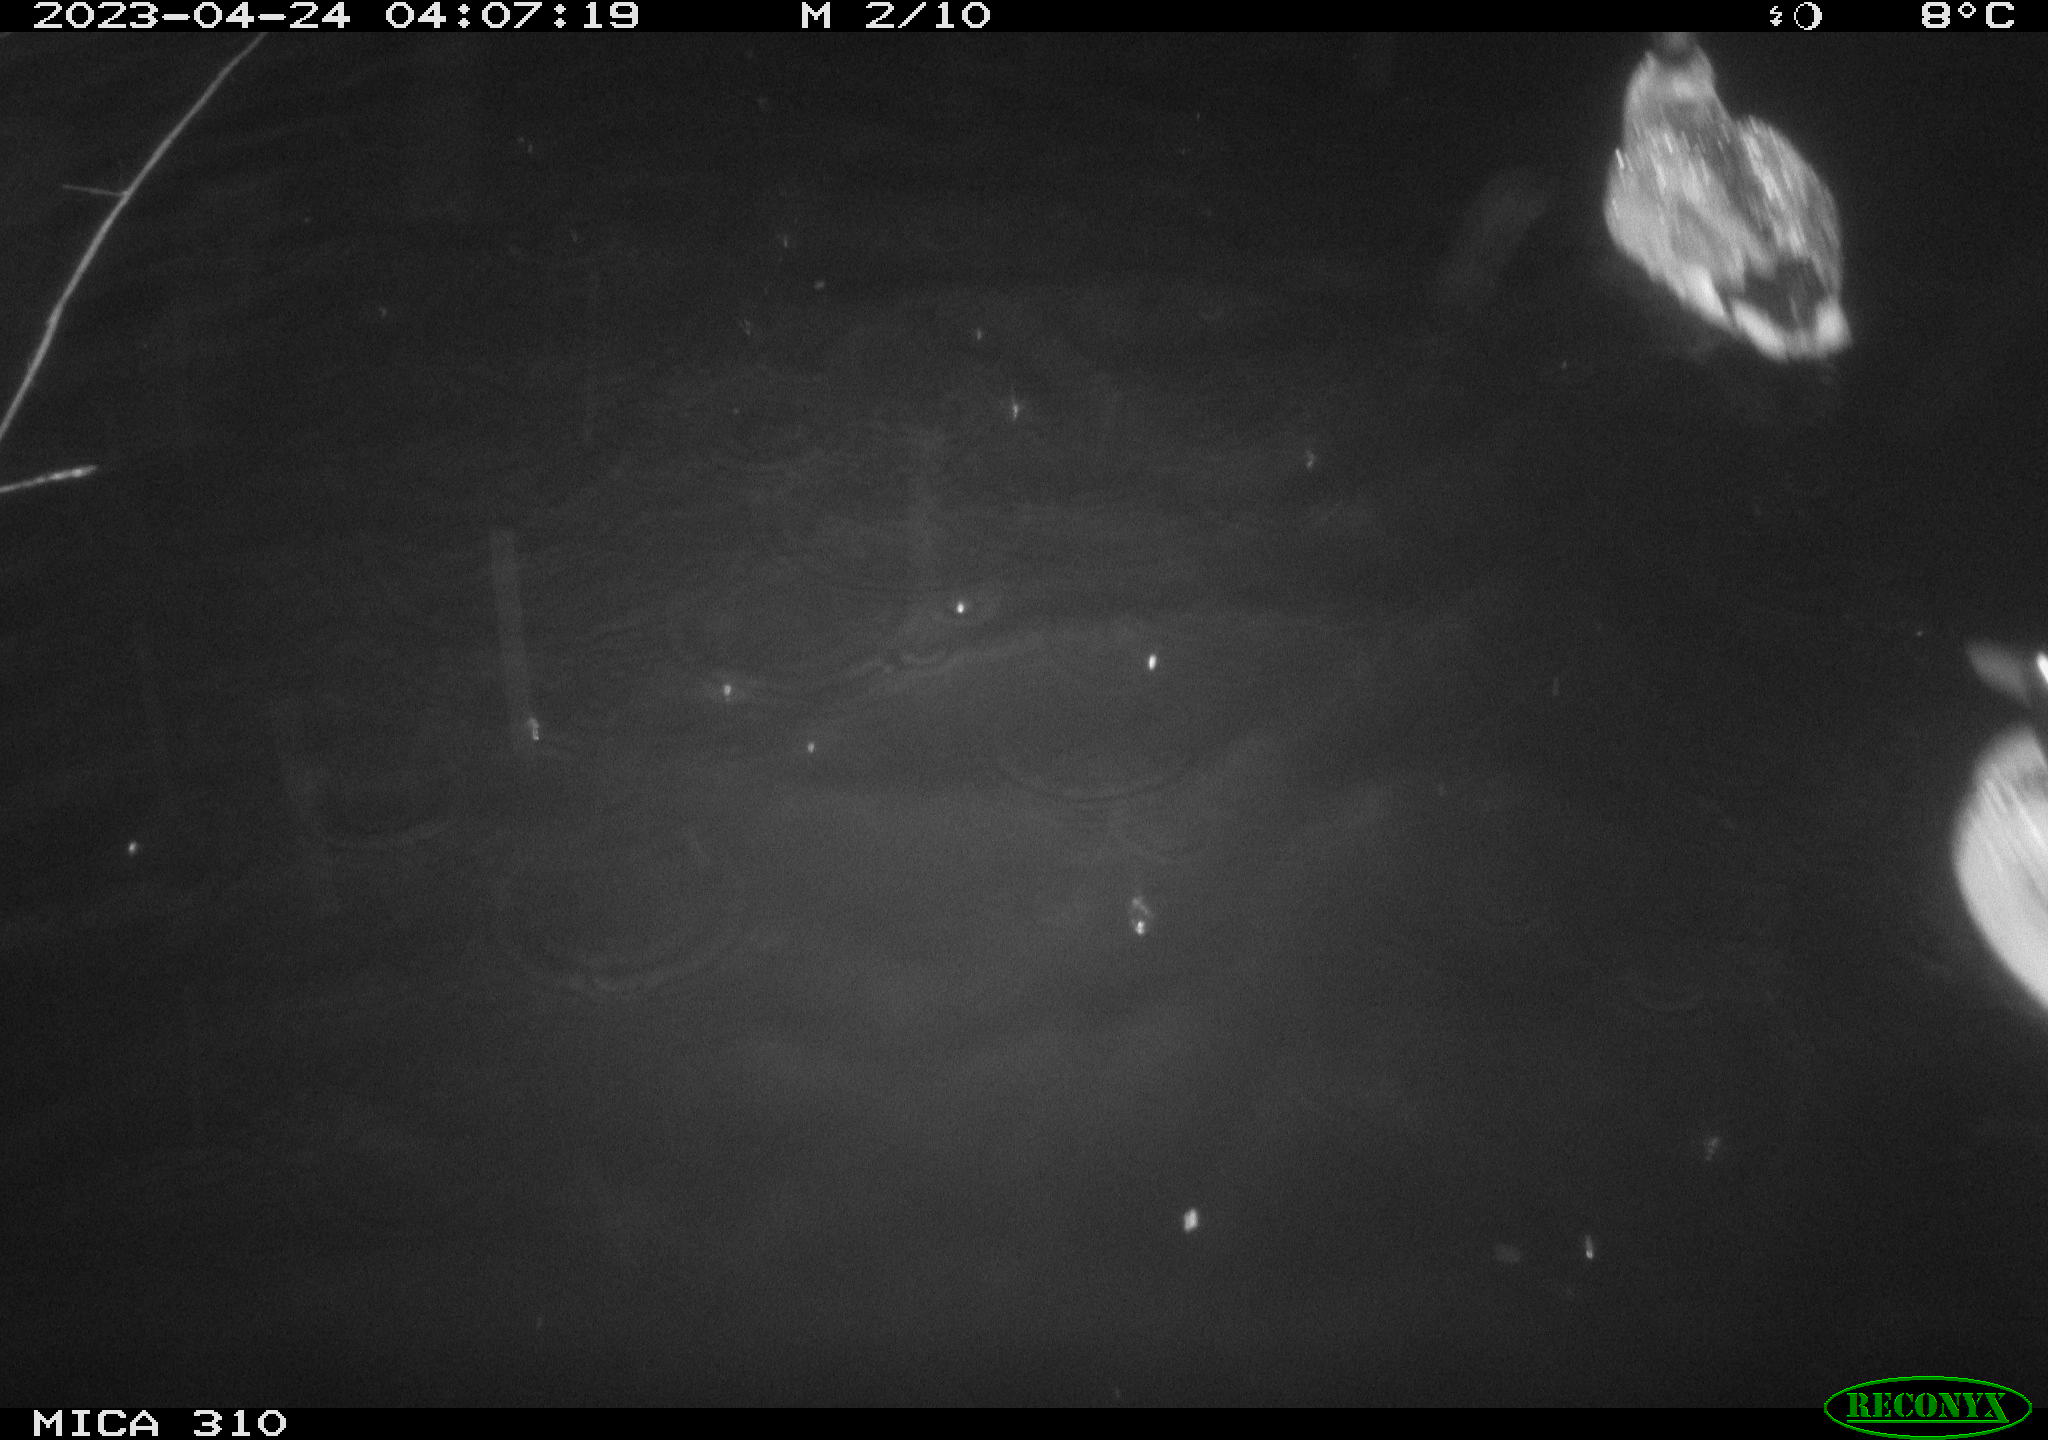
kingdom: Animalia
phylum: Chordata
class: Aves
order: Anseriformes
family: Anatidae
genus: Anas
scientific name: Anas platyrhynchos
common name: Mallard
